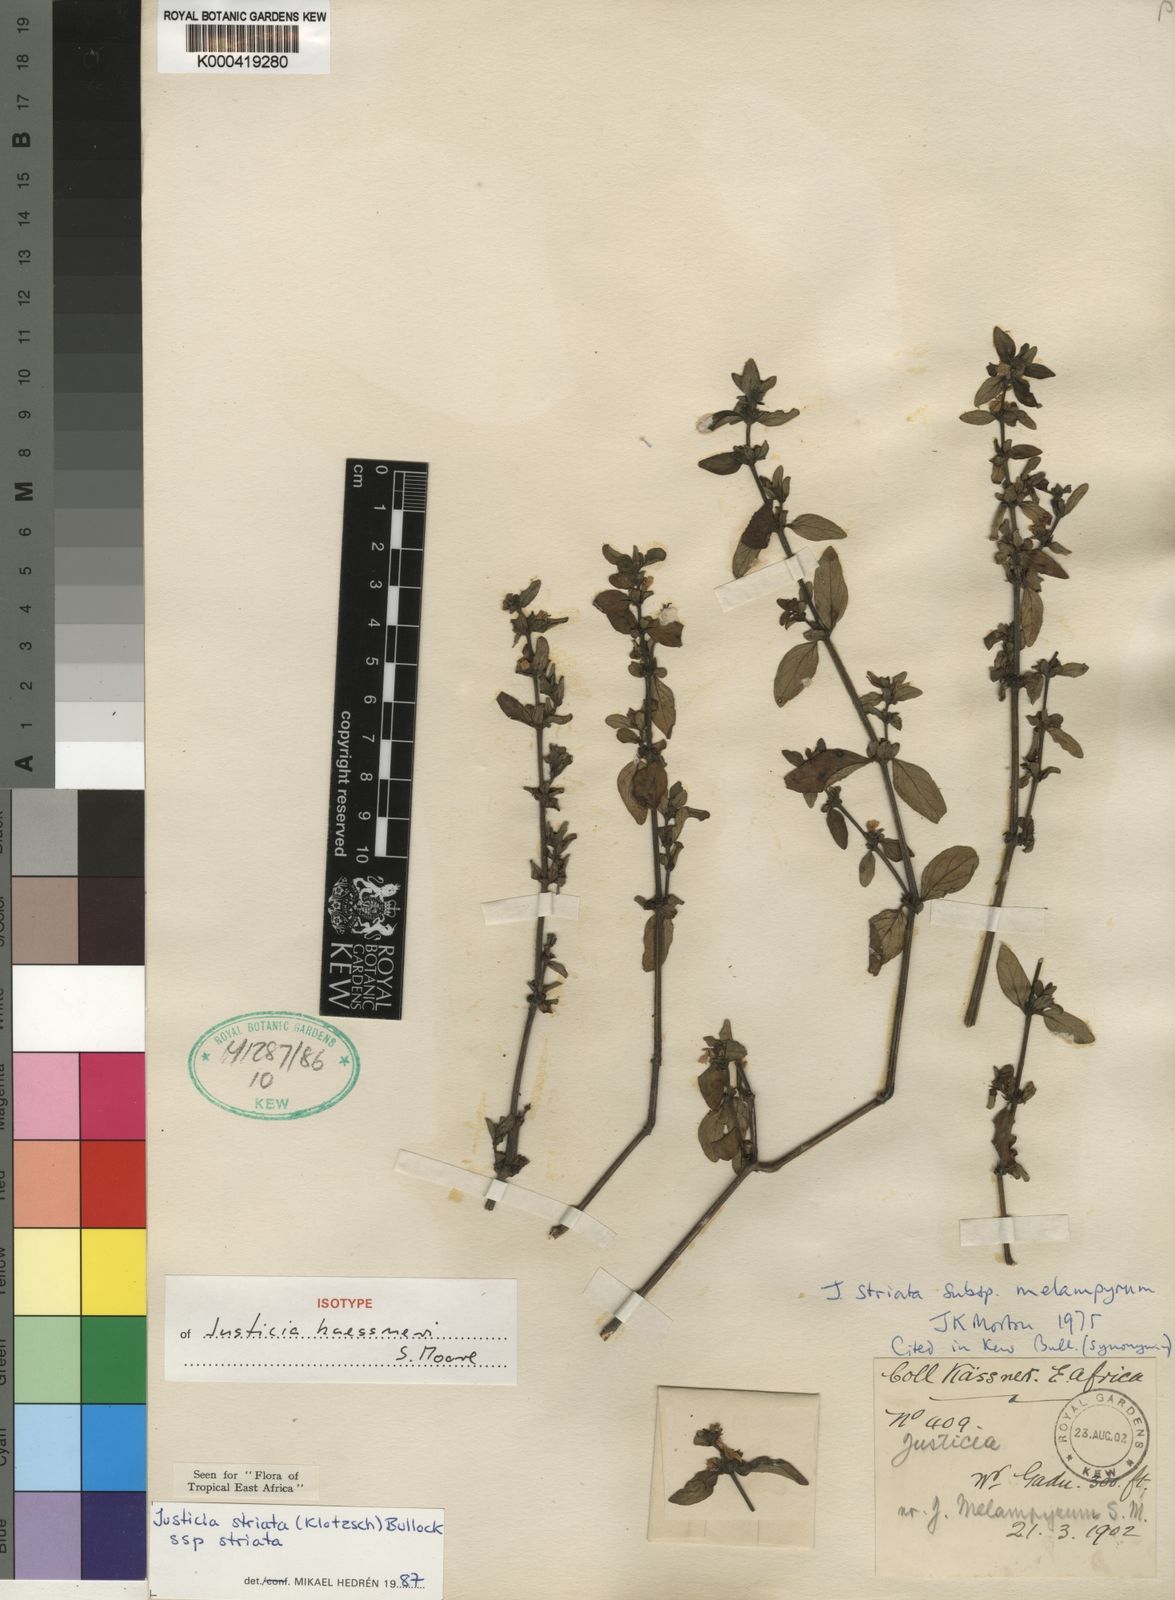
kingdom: Plantae
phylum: Tracheophyta
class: Magnoliopsida
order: Lamiales
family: Acanthaceae
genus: Justicia
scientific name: Justicia striata
